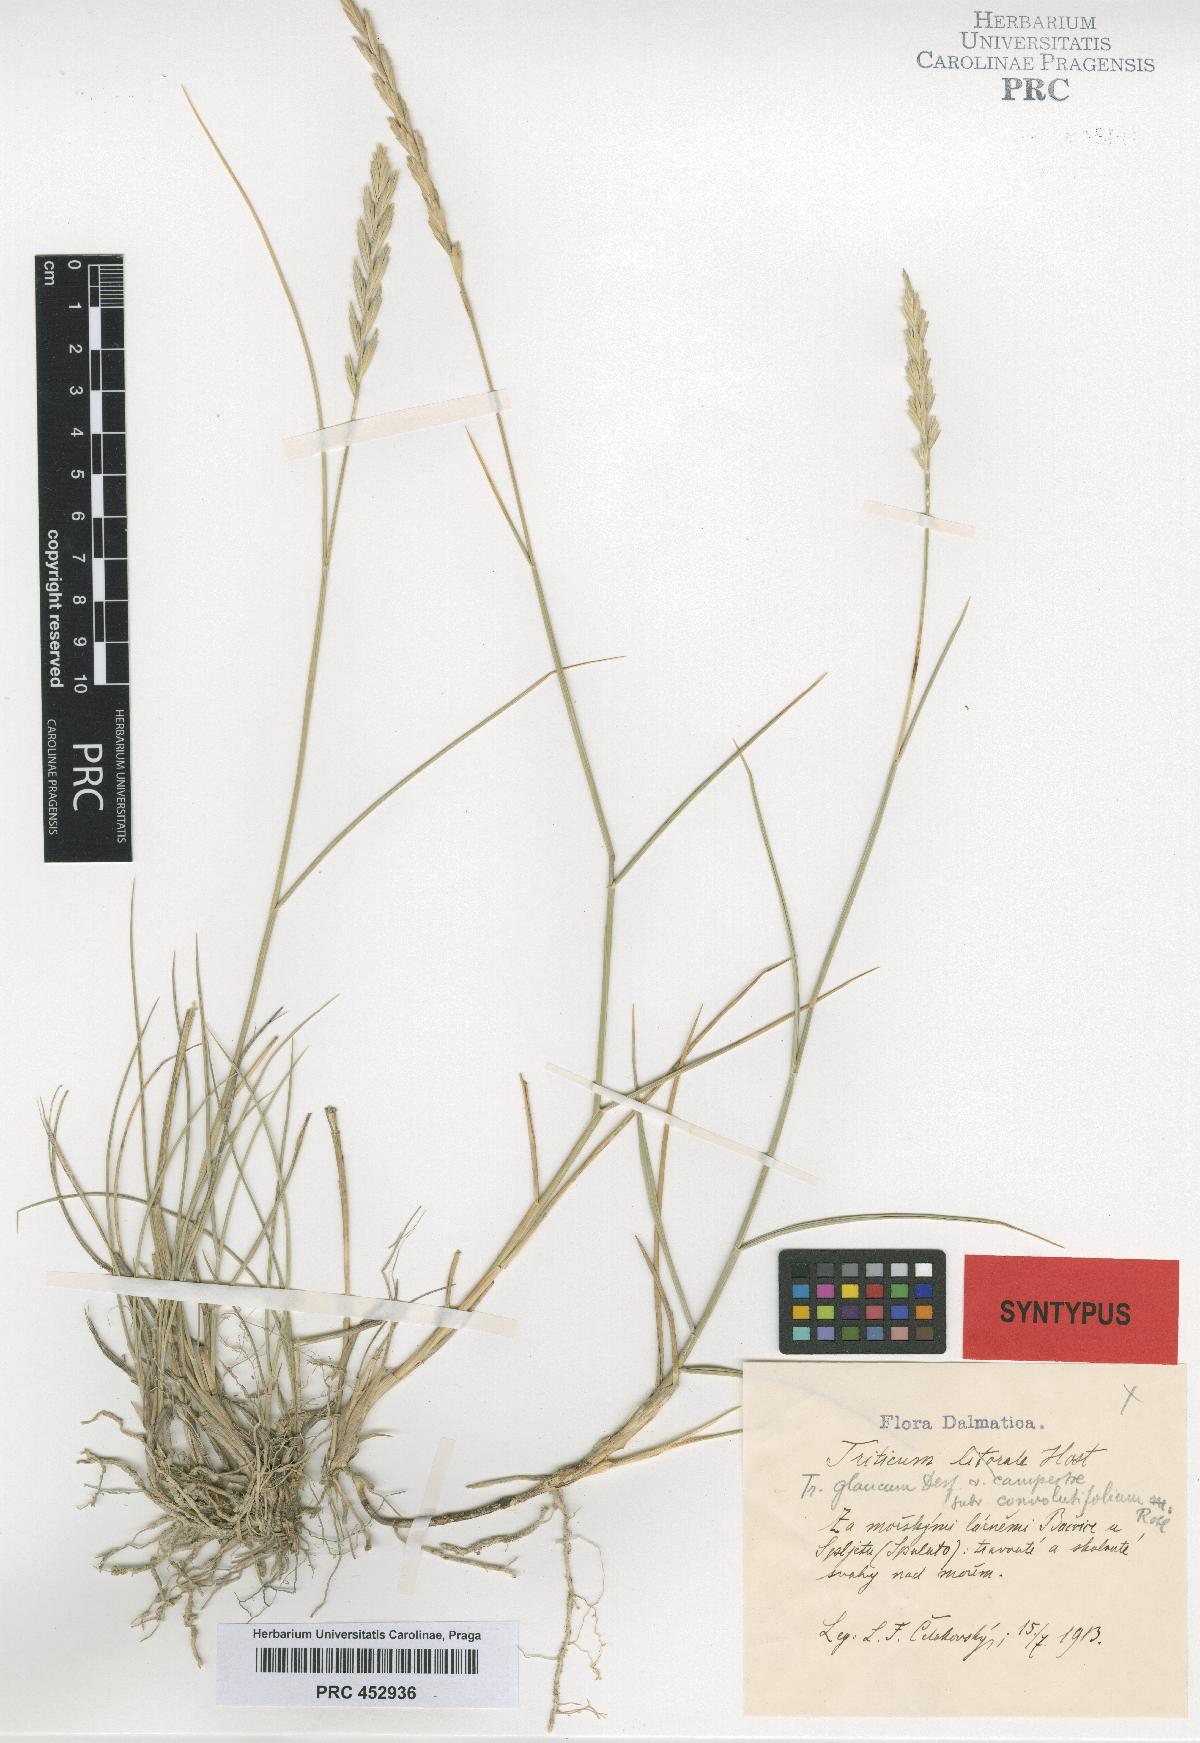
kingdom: Plantae
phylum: Tracheophyta
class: Liliopsida
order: Poales
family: Poaceae
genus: Triticum
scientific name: Triticum glaucum
